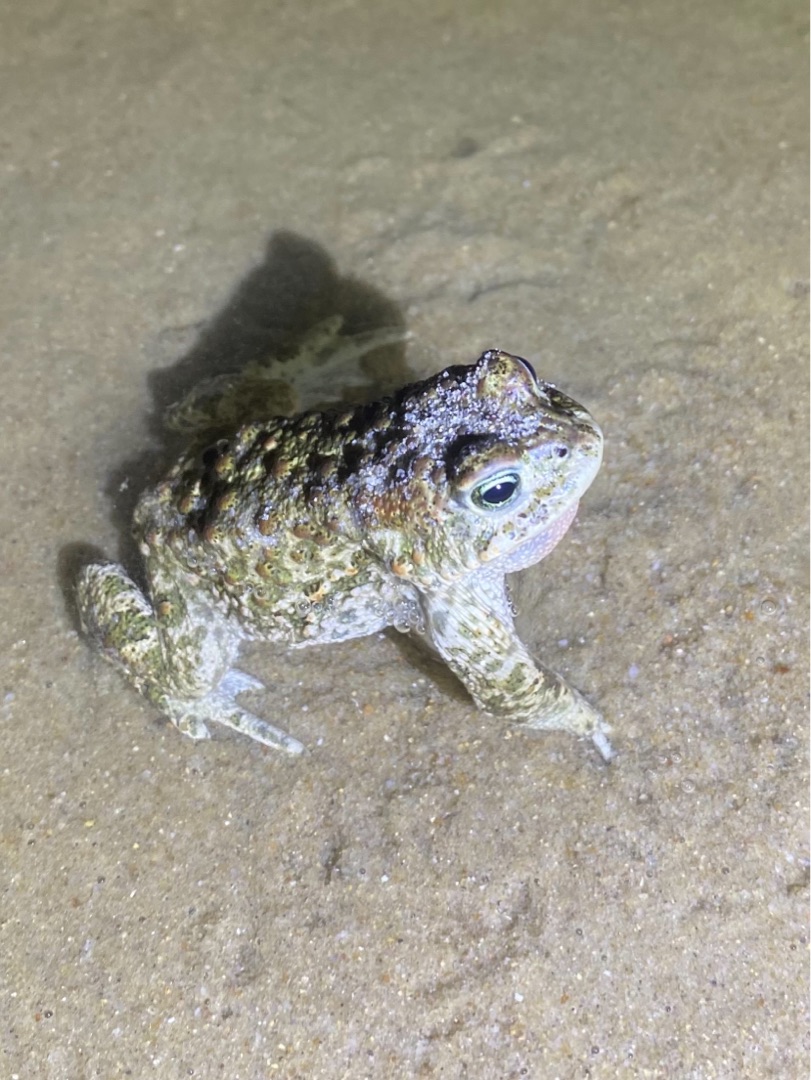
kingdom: Animalia
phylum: Chordata
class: Amphibia
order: Anura
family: Bufonidae
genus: Epidalea
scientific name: Epidalea calamita
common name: Strandtudse
